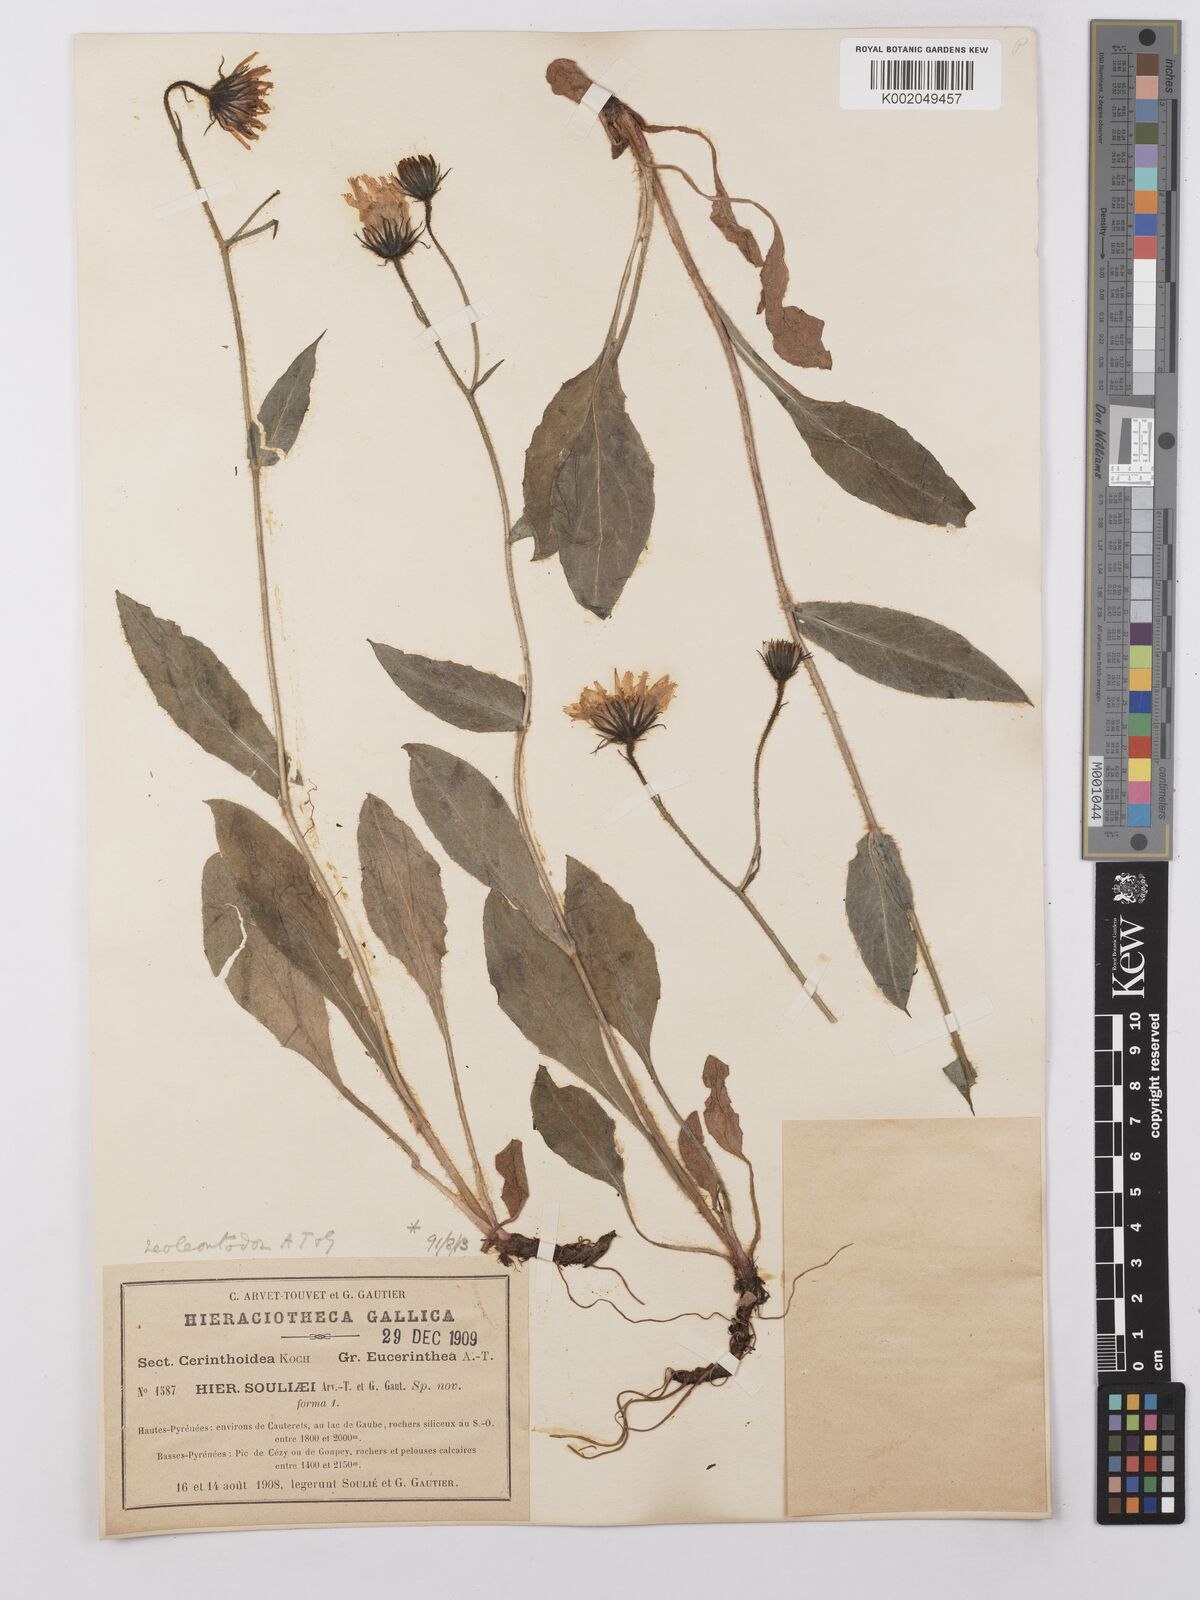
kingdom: Plantae
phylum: Tracheophyta
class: Magnoliopsida
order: Asterales
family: Asteraceae
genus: Hieracium
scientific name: Hieracium ramondii
